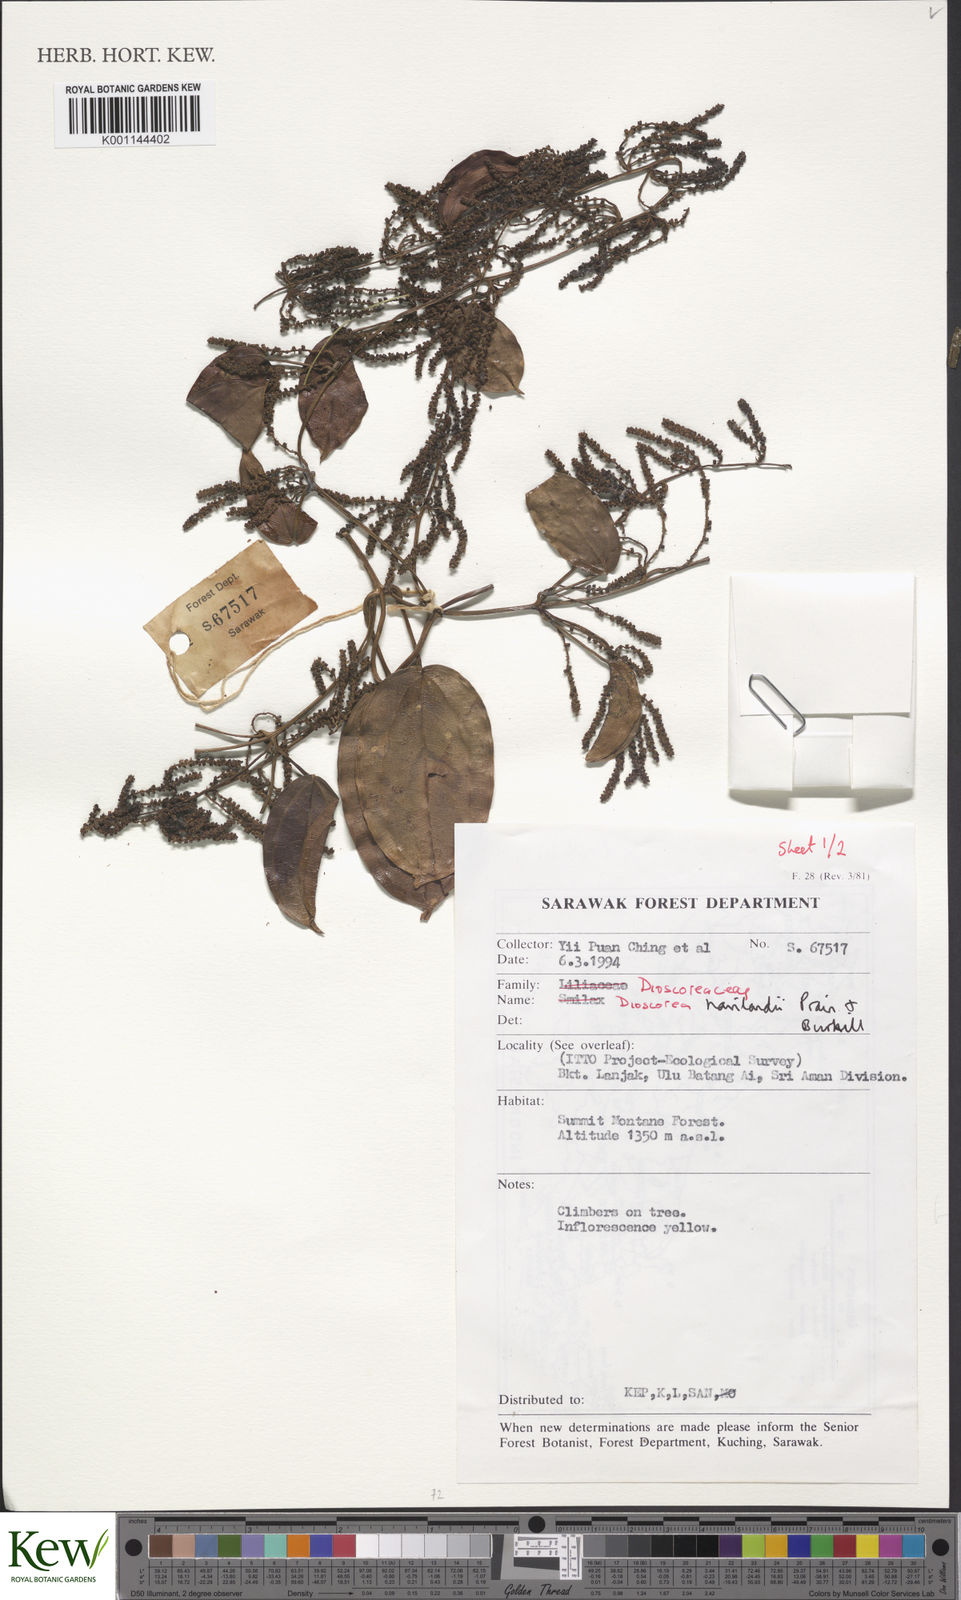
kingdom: Plantae
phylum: Tracheophyta
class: Liliopsida
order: Dioscoreales
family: Dioscoreaceae
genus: Dioscorea
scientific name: Dioscorea havilandii
